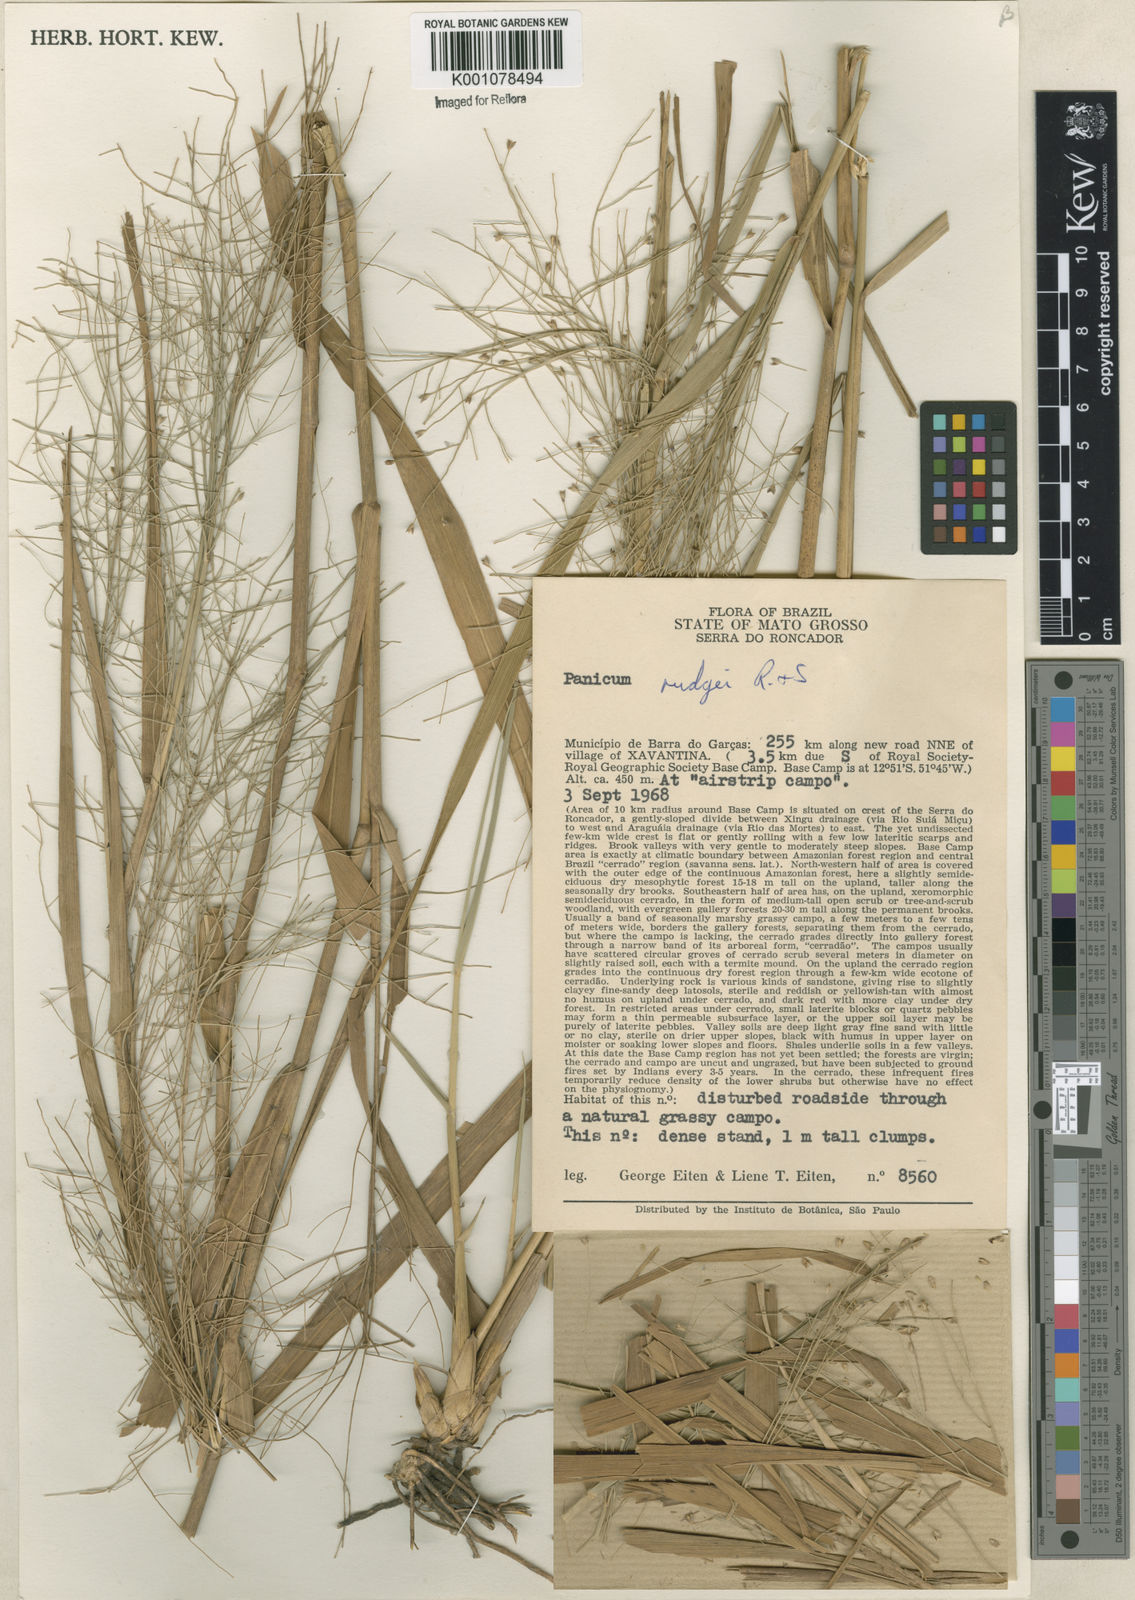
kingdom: Plantae
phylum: Tracheophyta
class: Liliopsida
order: Poales
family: Poaceae
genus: Panicum
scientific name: Panicum rudgei
